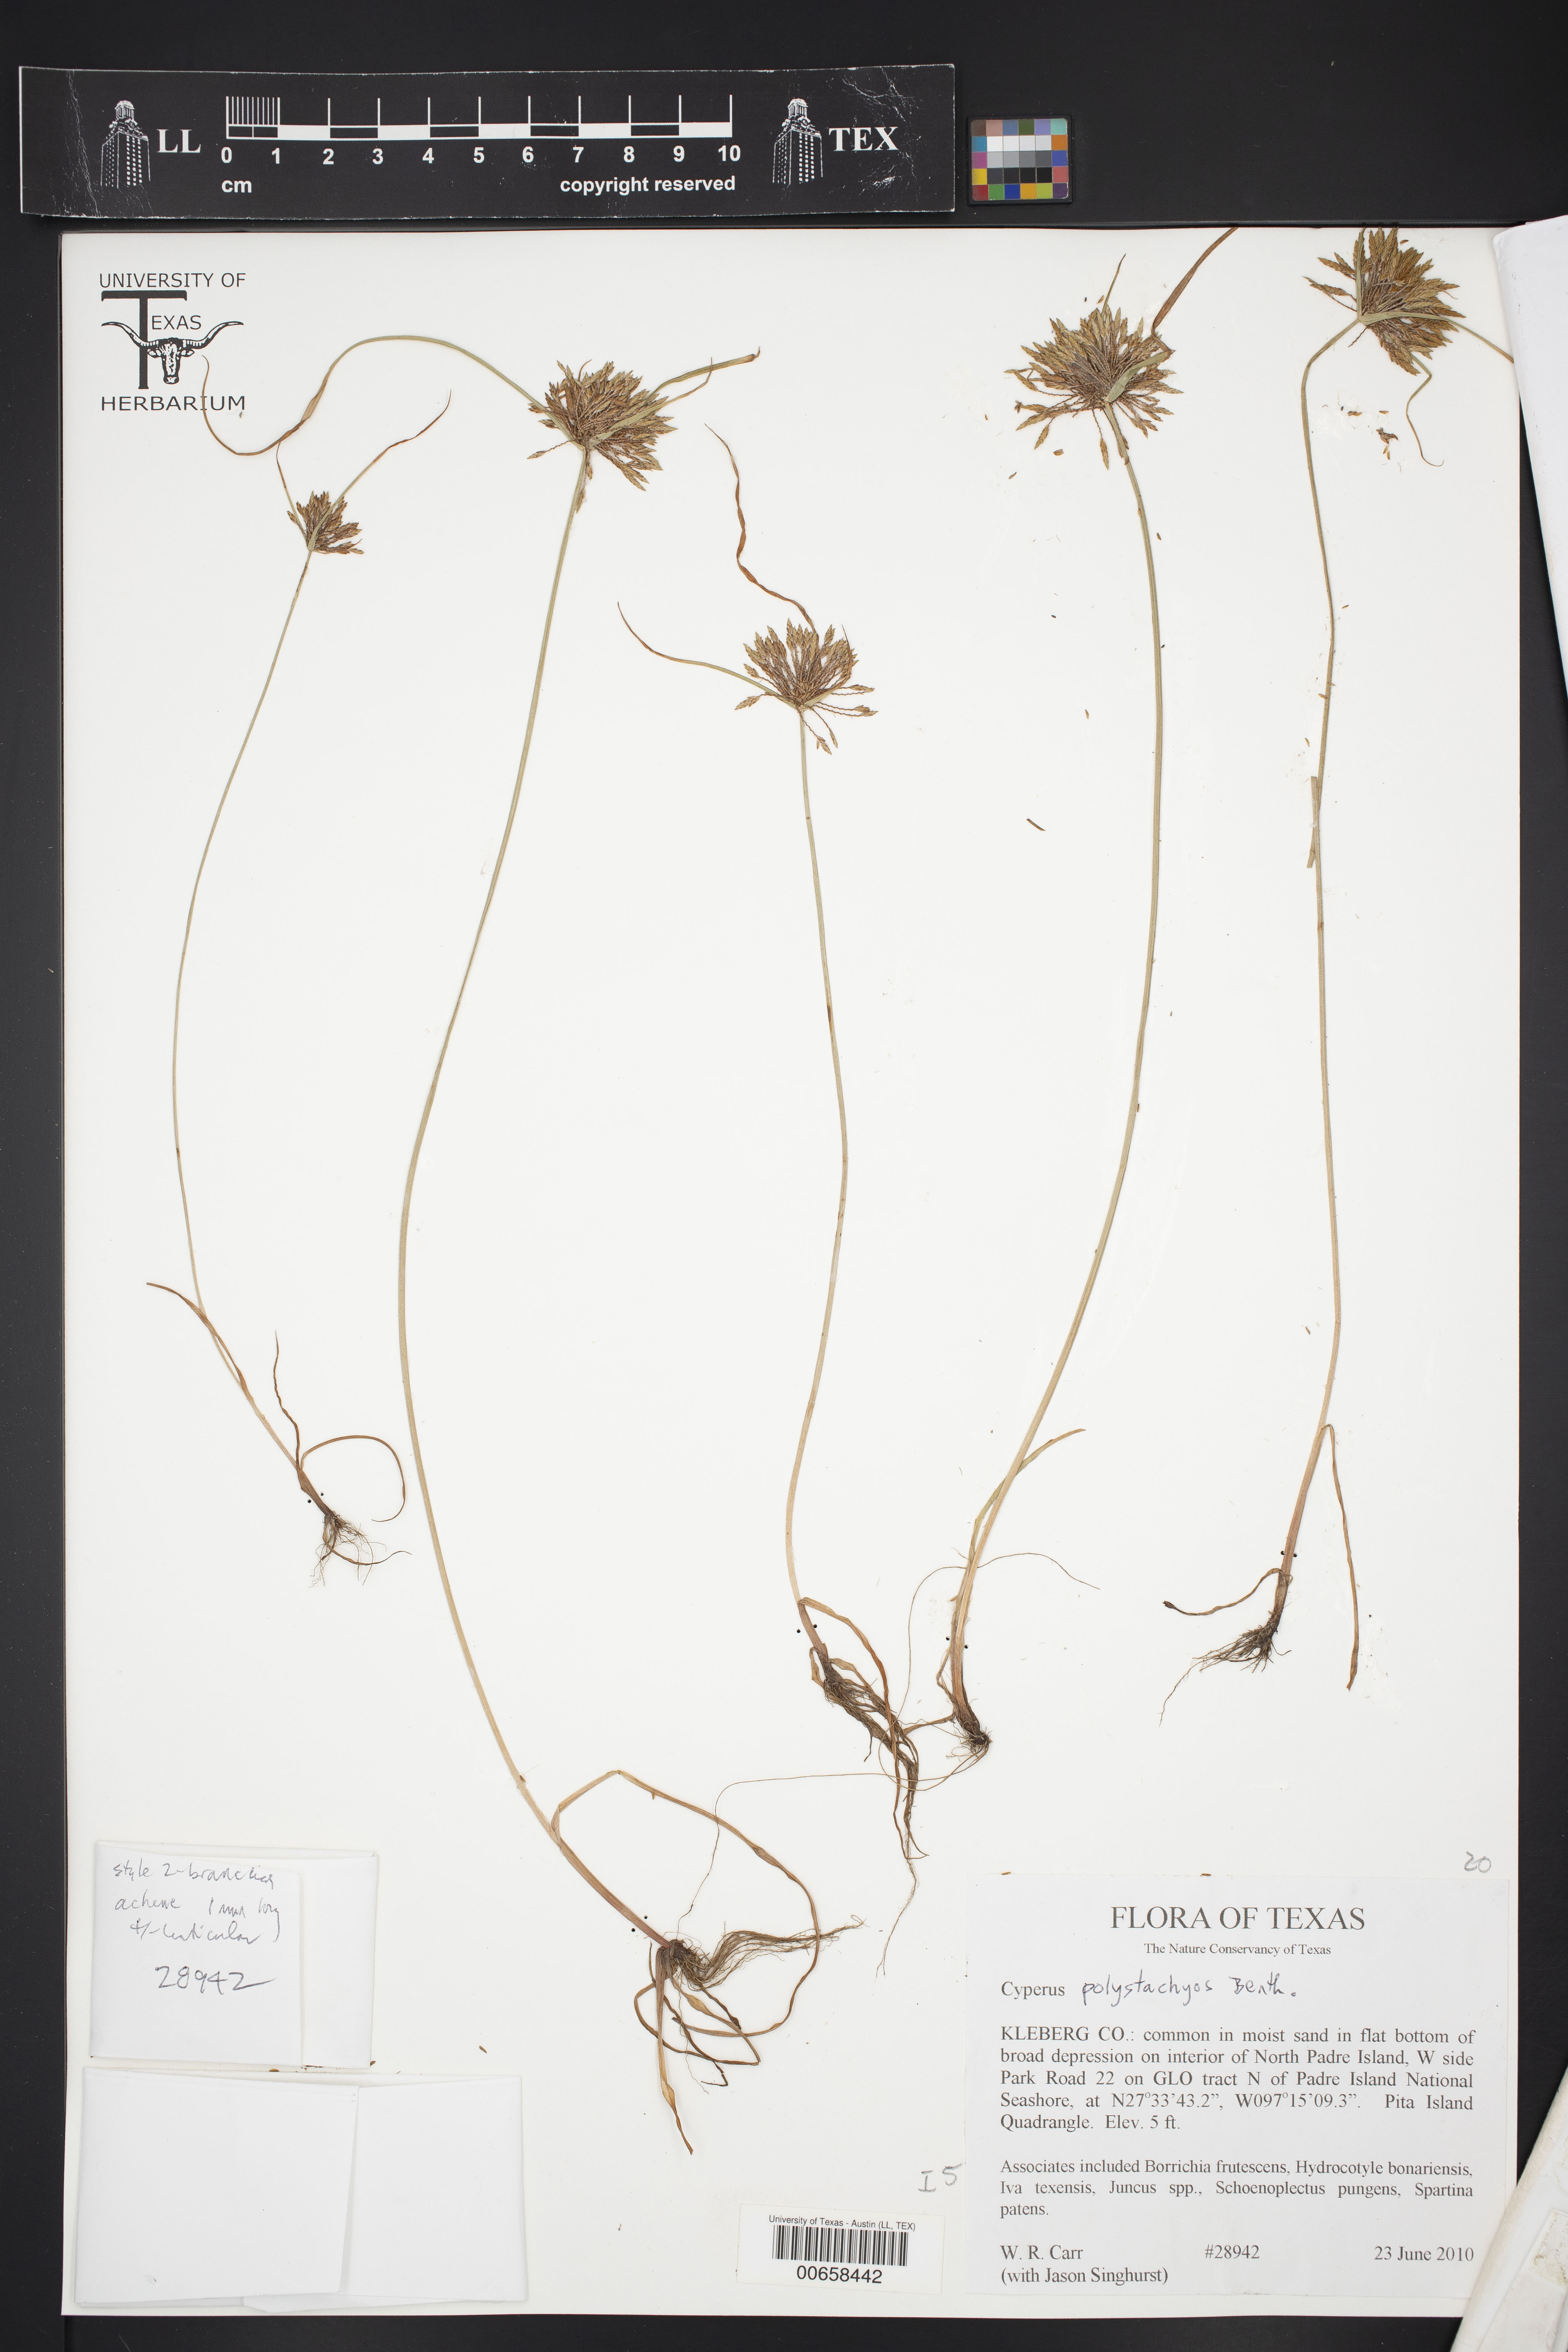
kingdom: Plantae
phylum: Tracheophyta
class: Liliopsida
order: Poales
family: Cyperaceae
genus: Cyperus
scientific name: Cyperus polystachyos
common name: Bunchy flat sedge
